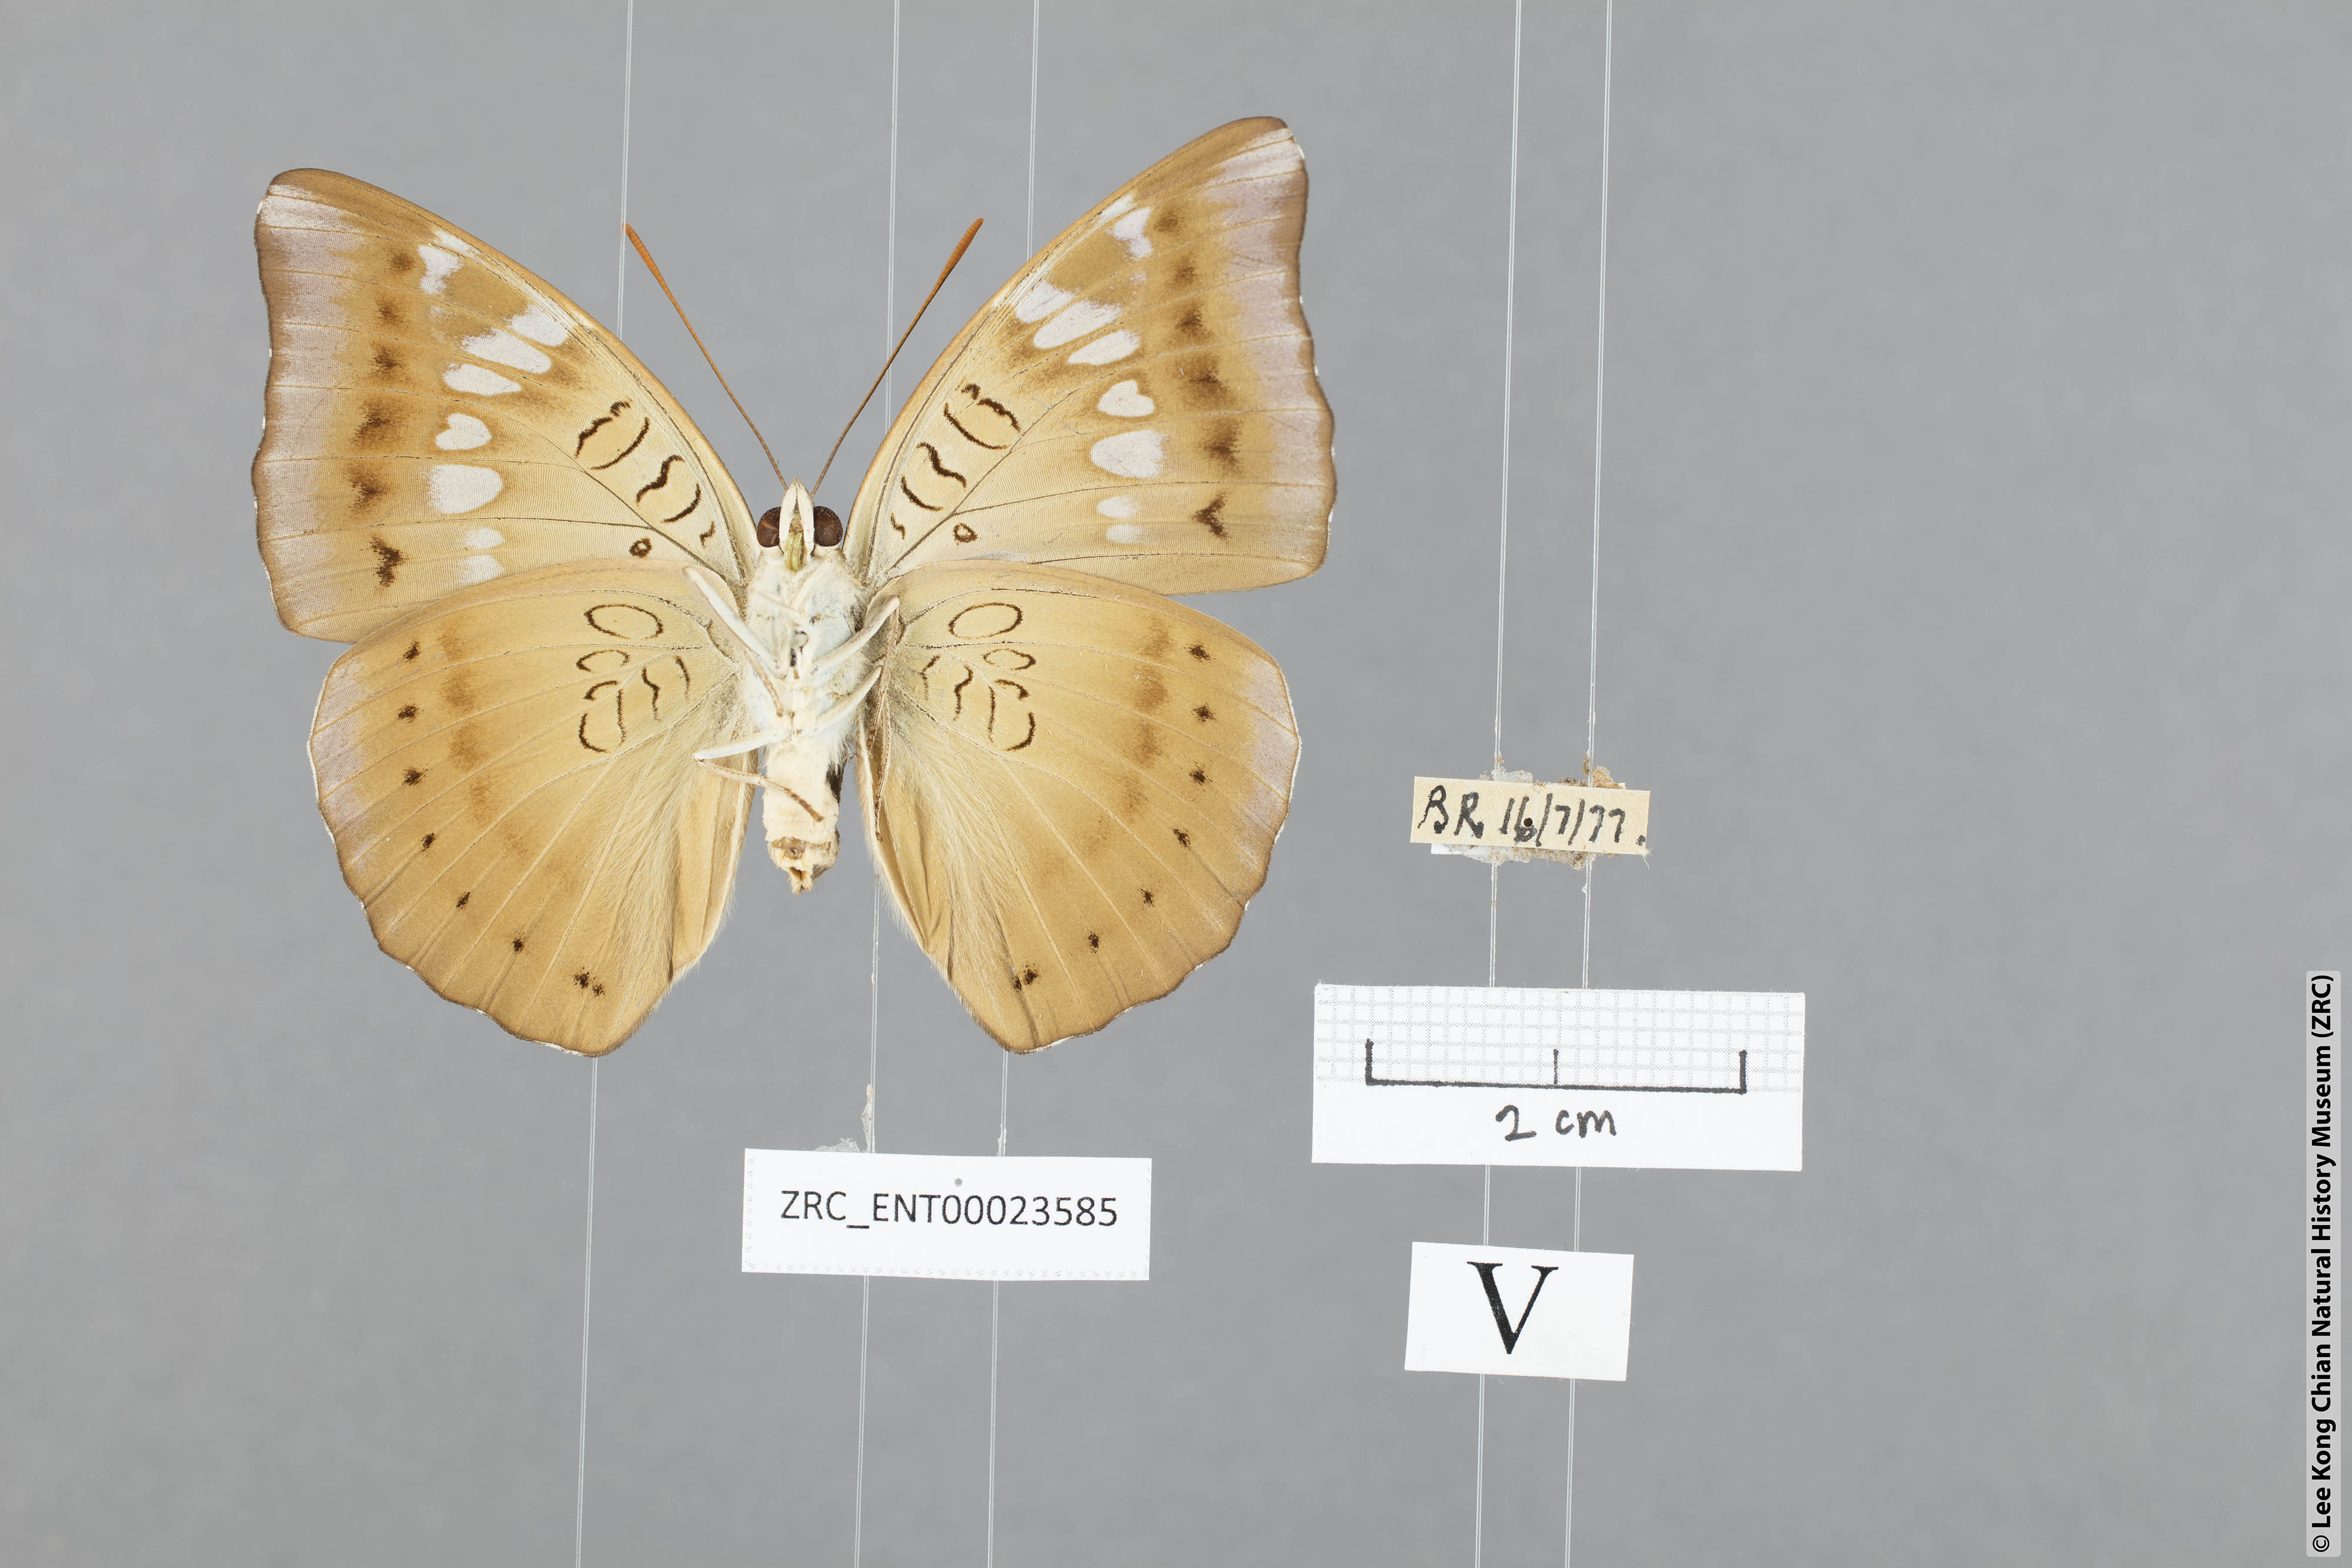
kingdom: Animalia
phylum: Arthropoda
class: Insecta
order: Lepidoptera
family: Nymphalidae
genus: Euthalia
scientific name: Euthalia aconthea
